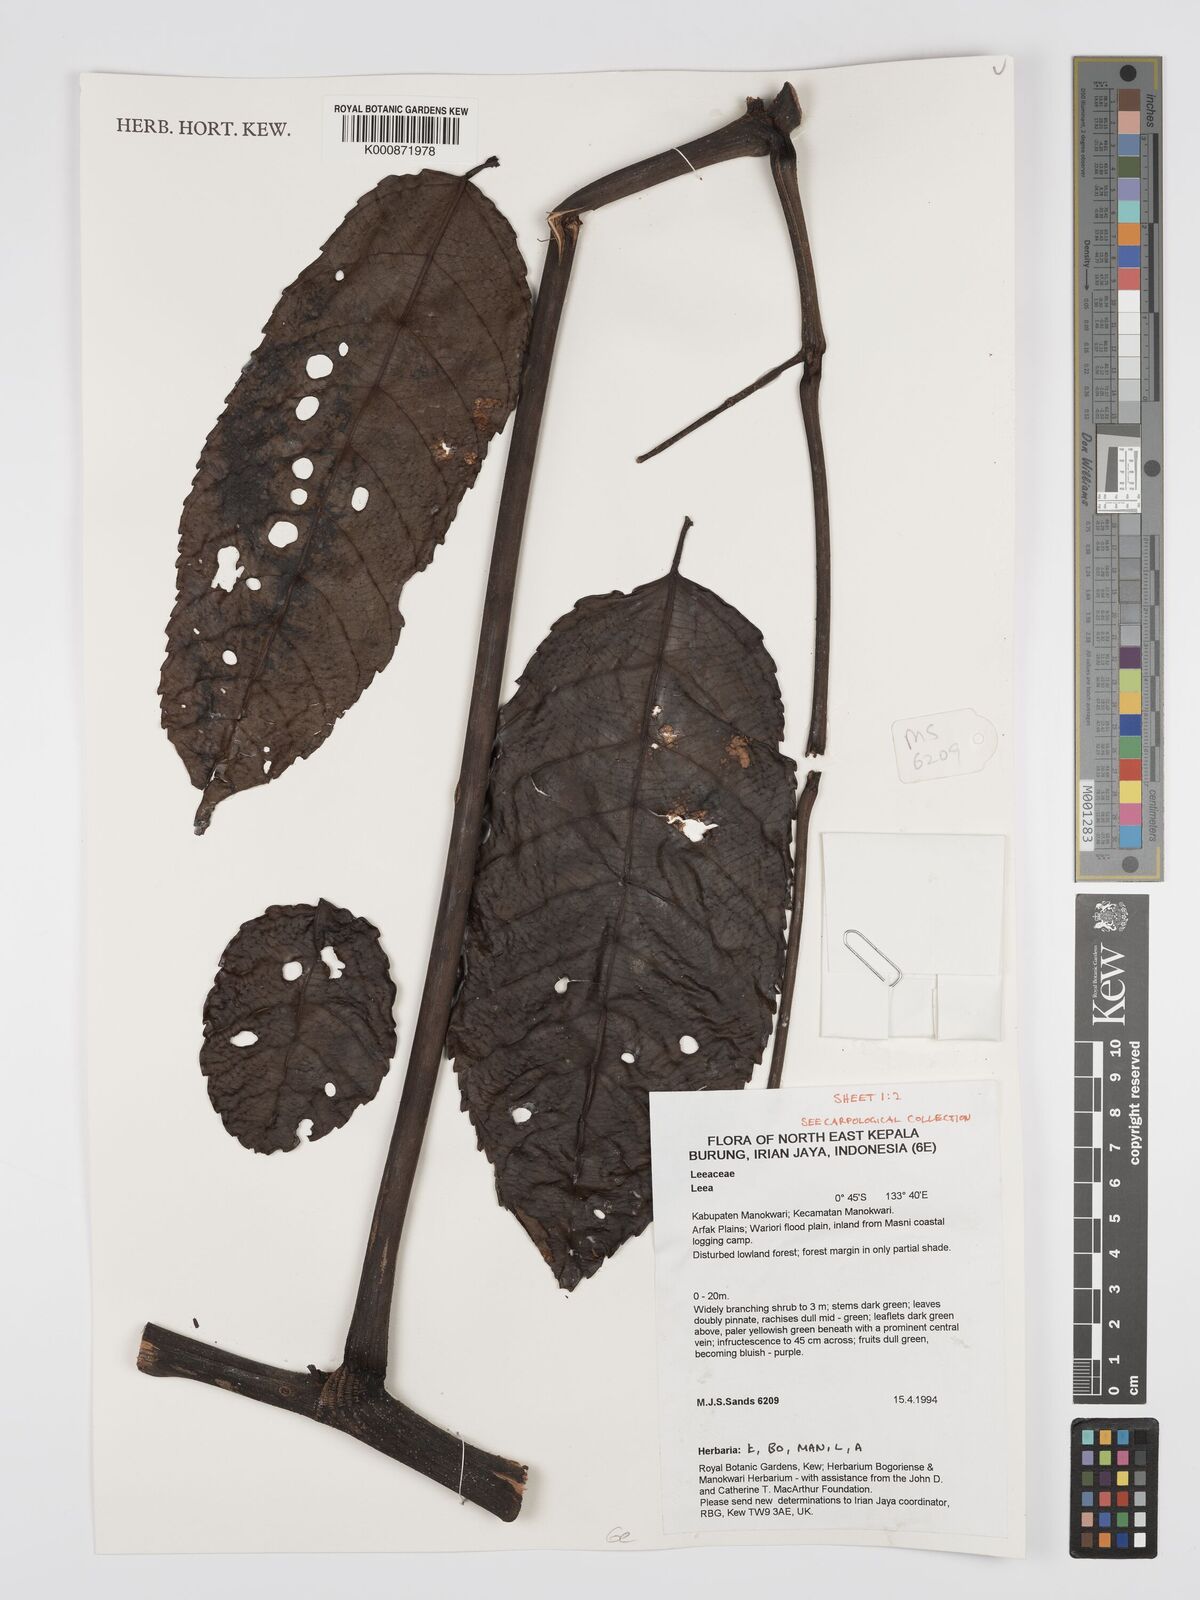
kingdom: Plantae
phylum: Tracheophyta
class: Magnoliopsida
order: Vitales
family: Vitaceae
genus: Leea
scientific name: Leea
